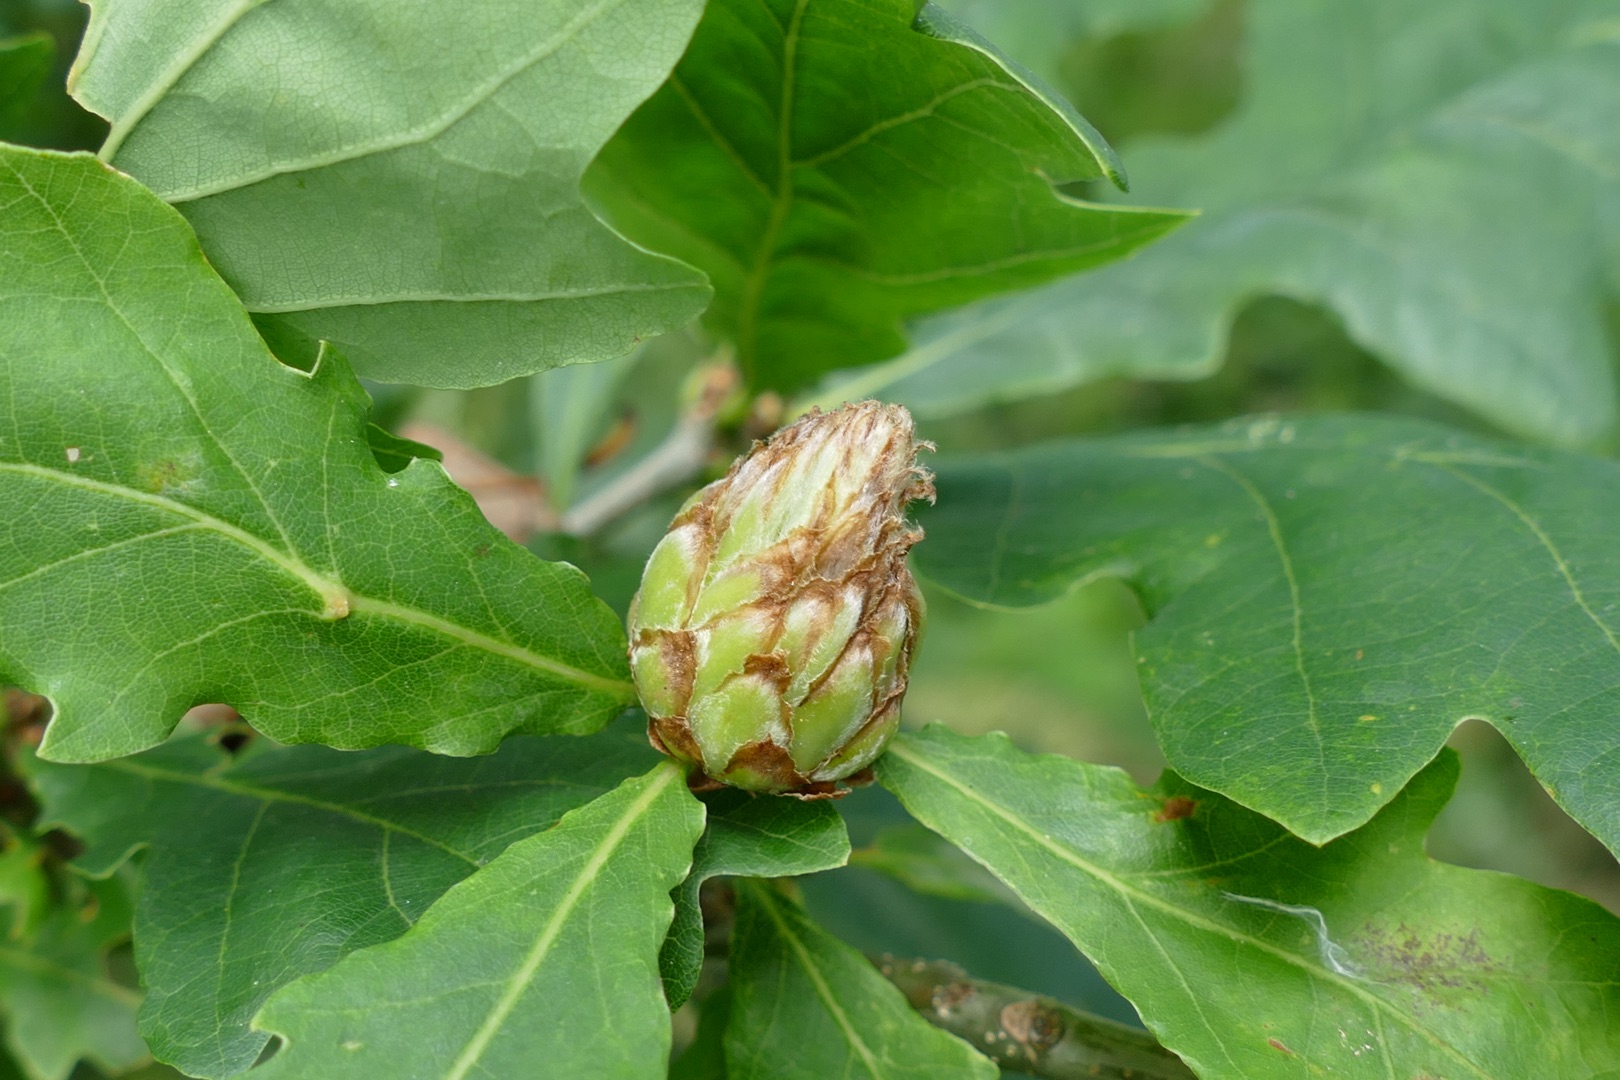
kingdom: Animalia
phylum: Arthropoda
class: Insecta
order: Hymenoptera
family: Cynipidae
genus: Andricus
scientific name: Andricus foecundatrix
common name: Artiskokgalhveps
